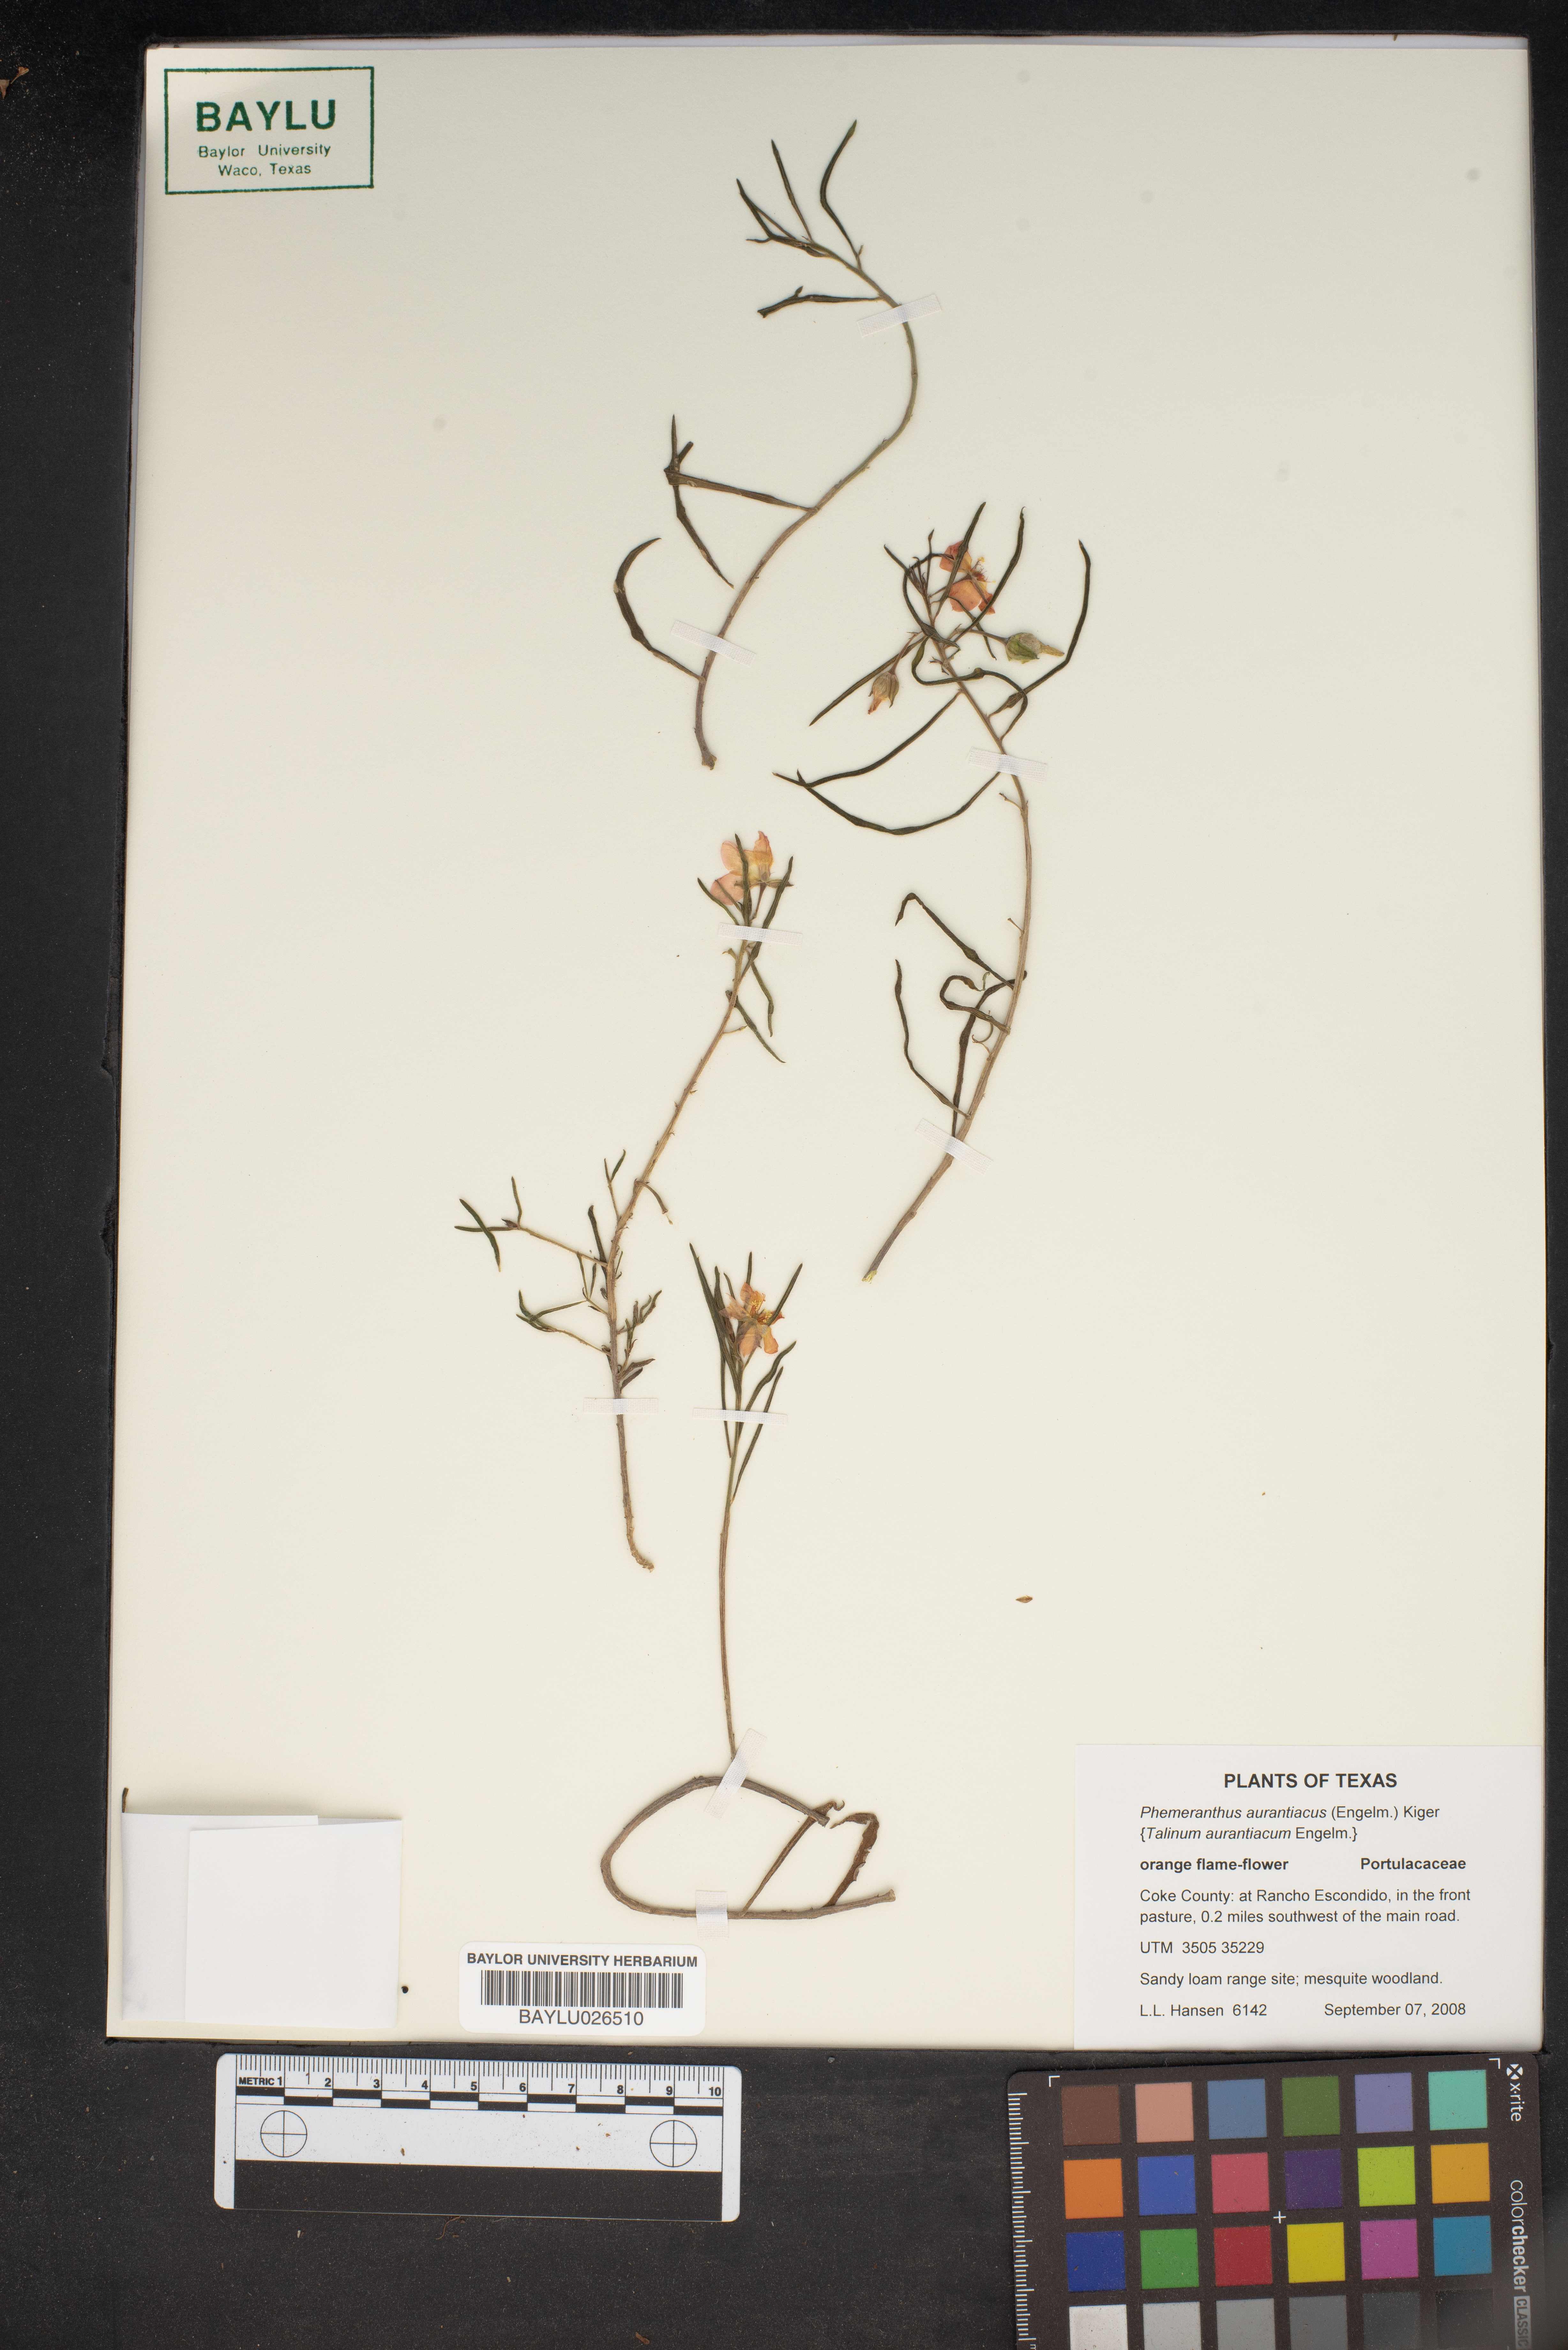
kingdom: Plantae
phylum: Tracheophyta
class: Magnoliopsida
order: Caryophyllales
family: Montiaceae
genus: Phemeranthus
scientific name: Phemeranthus aurantiacus
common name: Orange fameflower
